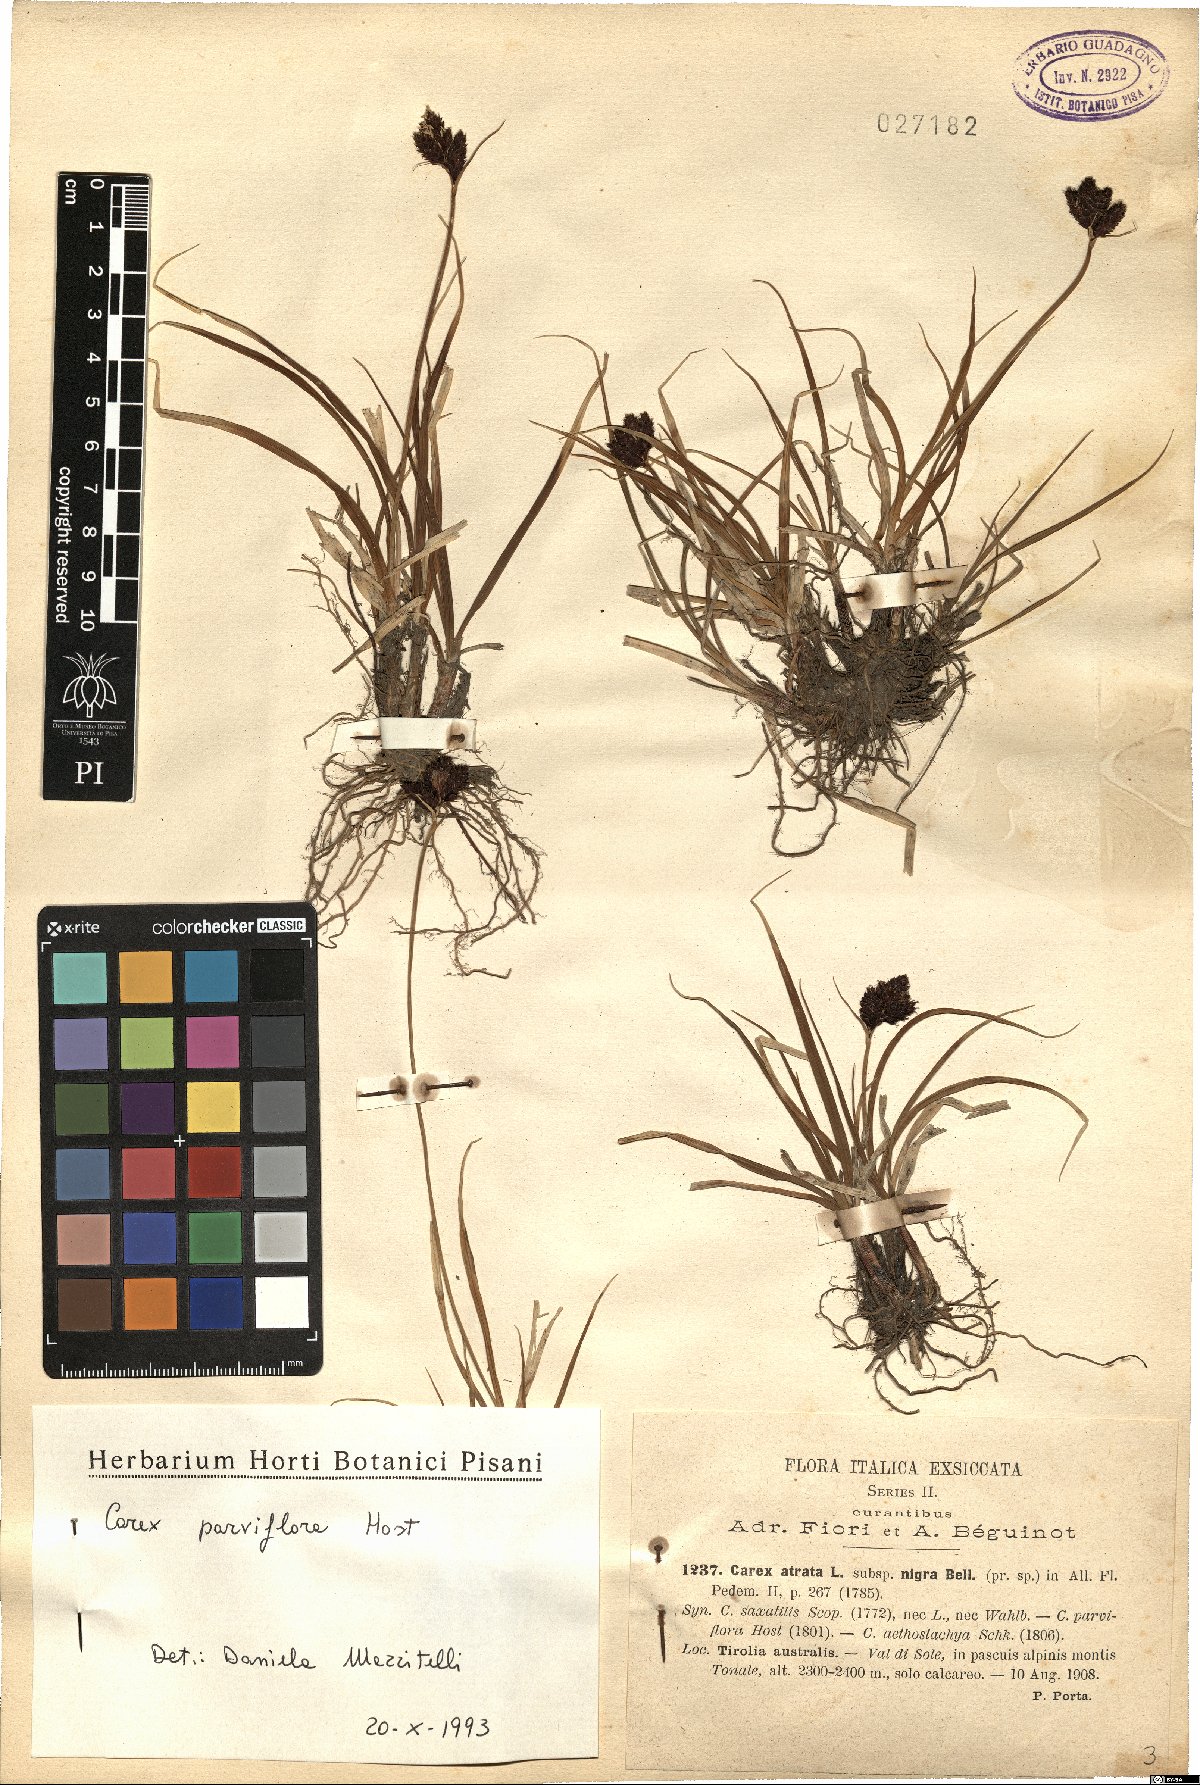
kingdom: Plantae
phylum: Tracheophyta
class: Liliopsida
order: Poales
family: Cyperaceae
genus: Carex
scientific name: Carex parviflora
